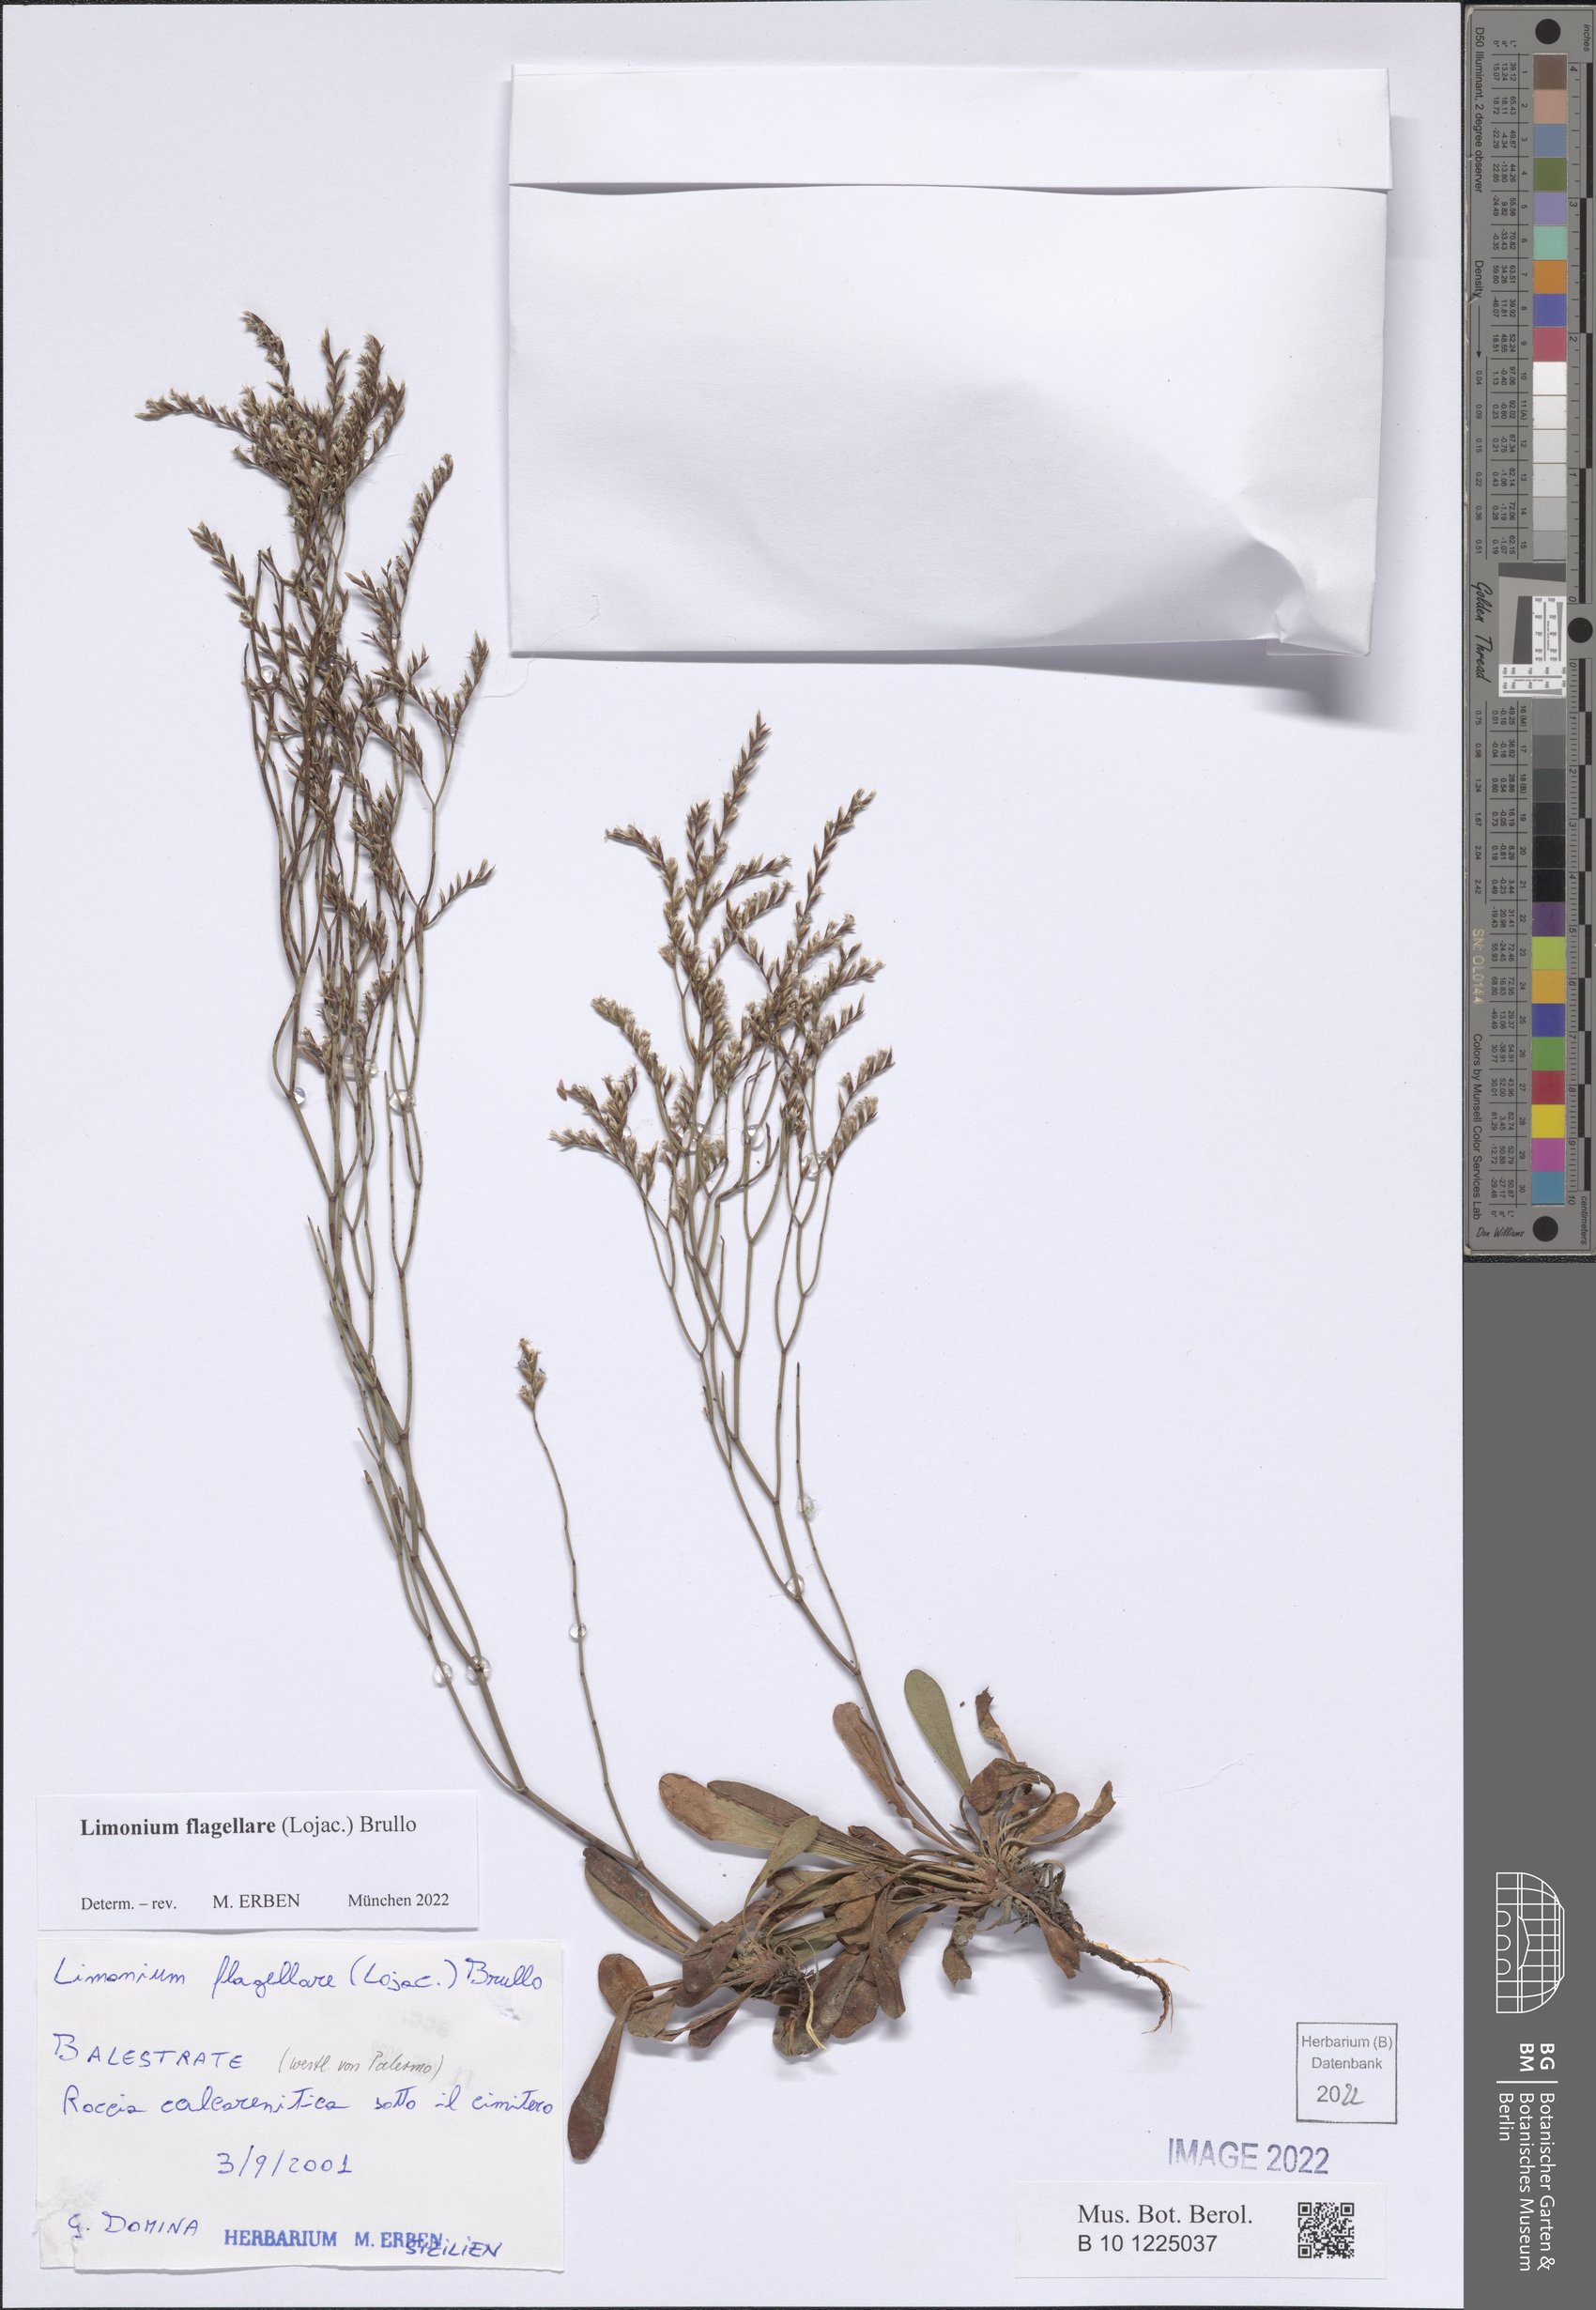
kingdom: Plantae
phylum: Tracheophyta
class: Magnoliopsida
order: Caryophyllales
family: Plumbaginaceae
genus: Limonium
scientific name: Limonium flagellare
